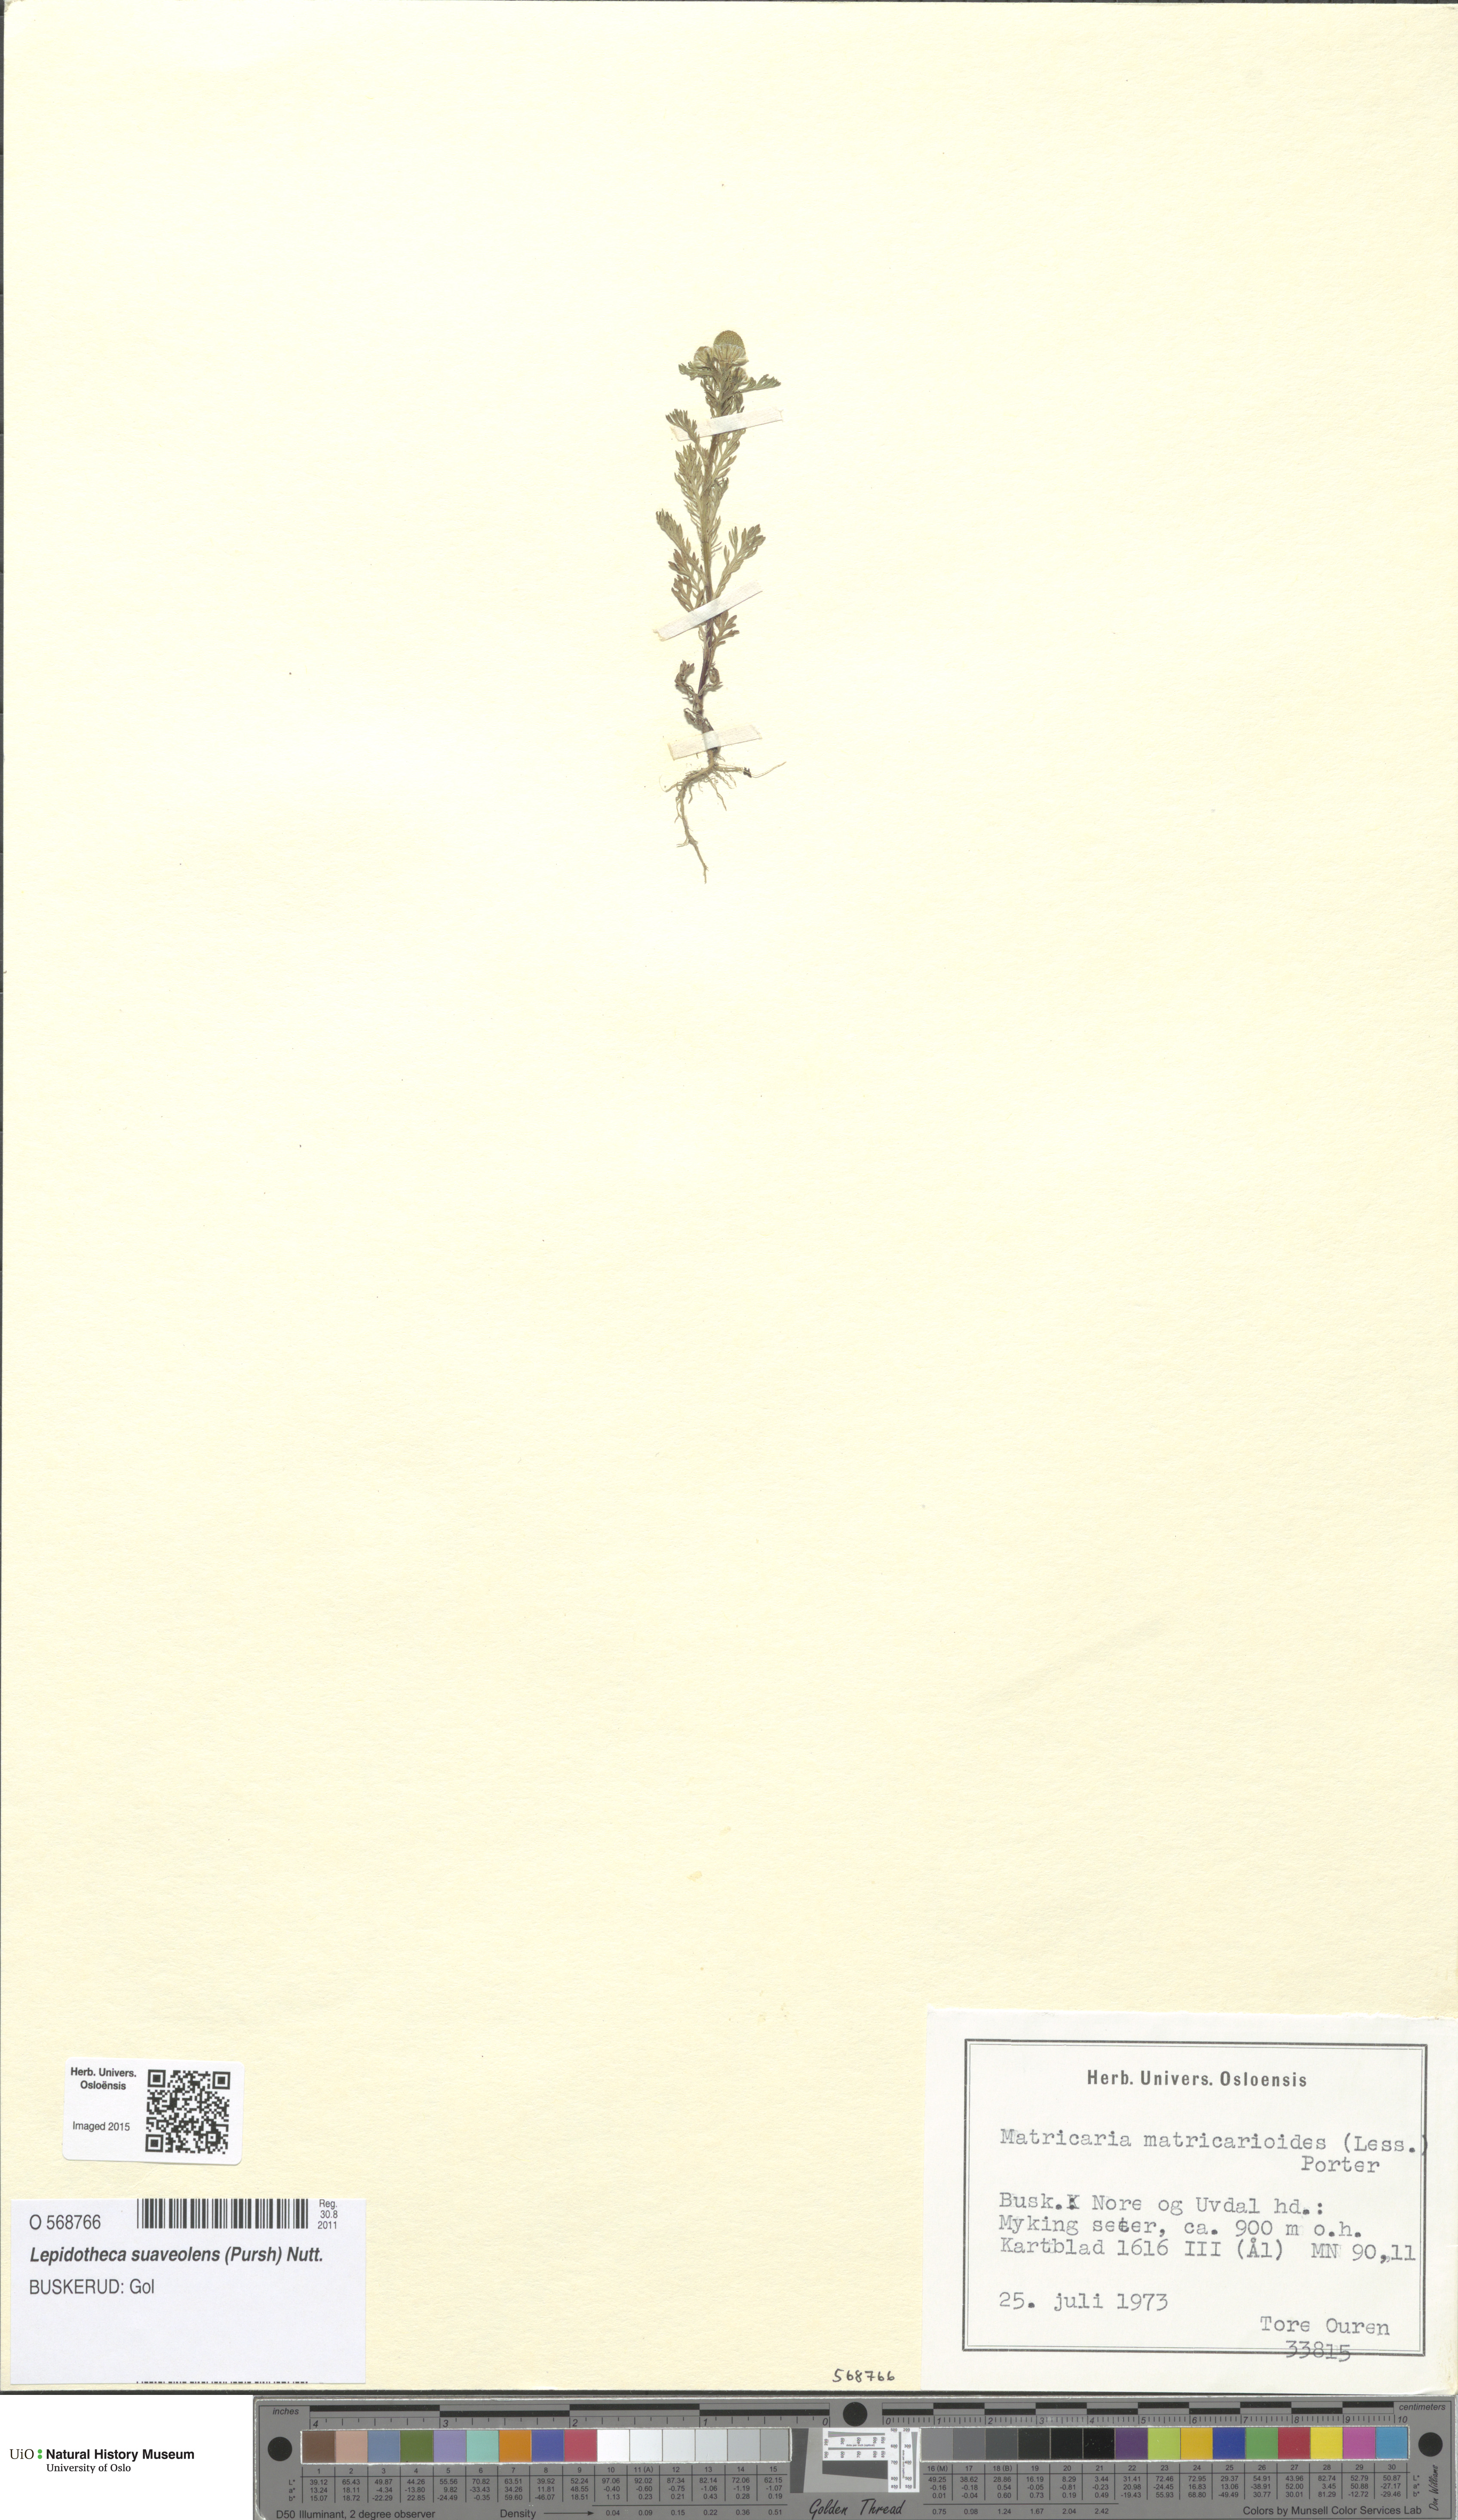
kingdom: Plantae
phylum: Tracheophyta
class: Magnoliopsida
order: Asterales
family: Asteraceae
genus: Matricaria
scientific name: Matricaria discoidea
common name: Disc mayweed
